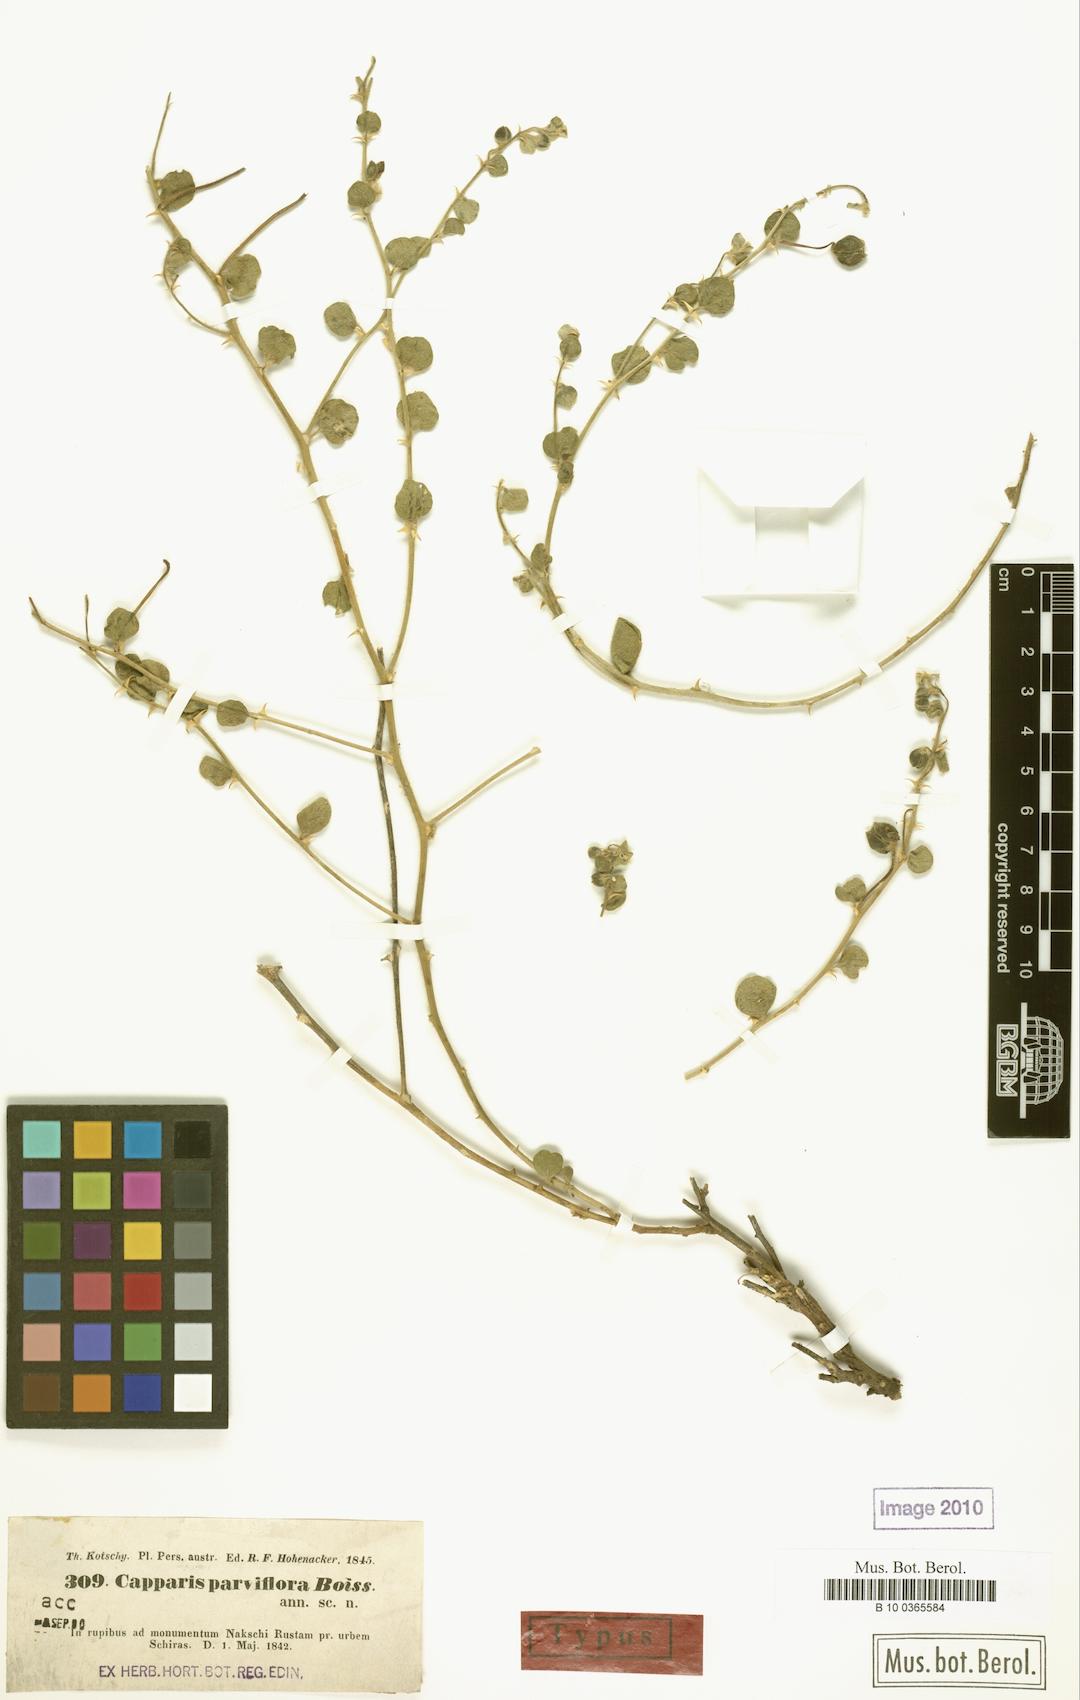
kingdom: Plantae
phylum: Tracheophyta
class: Magnoliopsida
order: Brassicales
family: Capparaceae
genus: Capparis
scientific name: Capparis spinosa
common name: Caper
